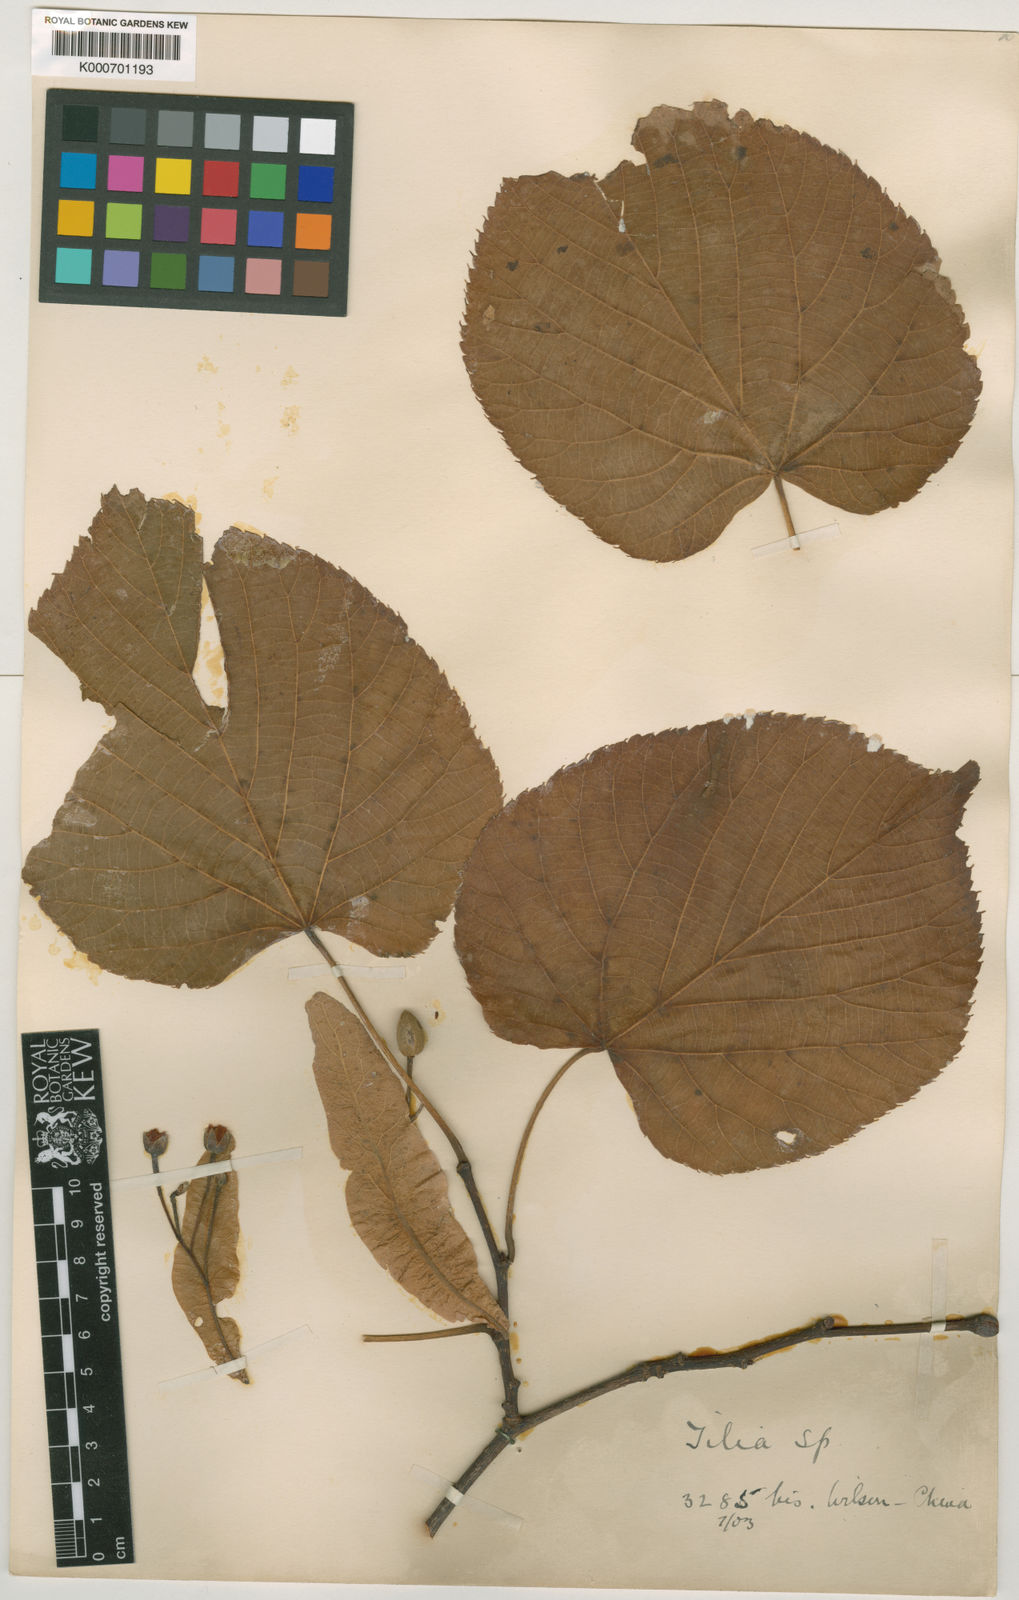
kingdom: Plantae
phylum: Tracheophyta
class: Magnoliopsida
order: Malvales
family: Malvaceae
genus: Tilia
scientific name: Tilia nobilis
